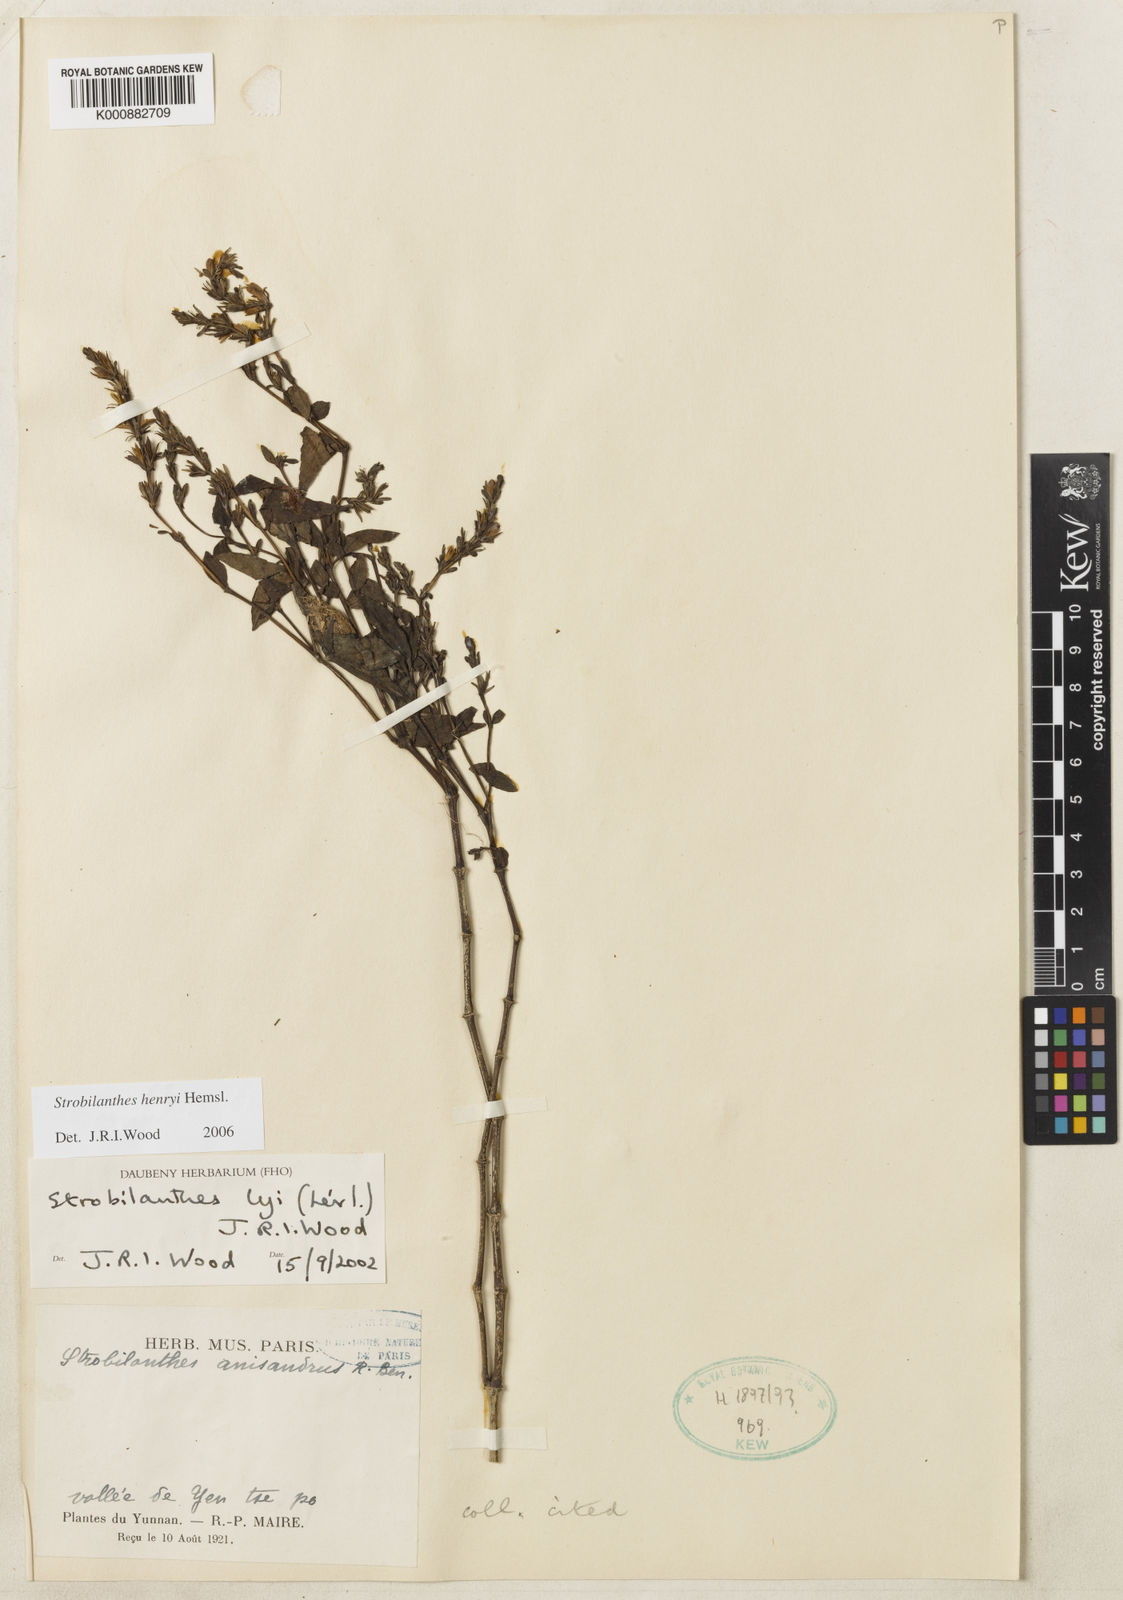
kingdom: Plantae
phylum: Tracheophyta
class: Magnoliopsida
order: Lamiales
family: Acanthaceae
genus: Strobilanthes
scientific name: Strobilanthes henryi
